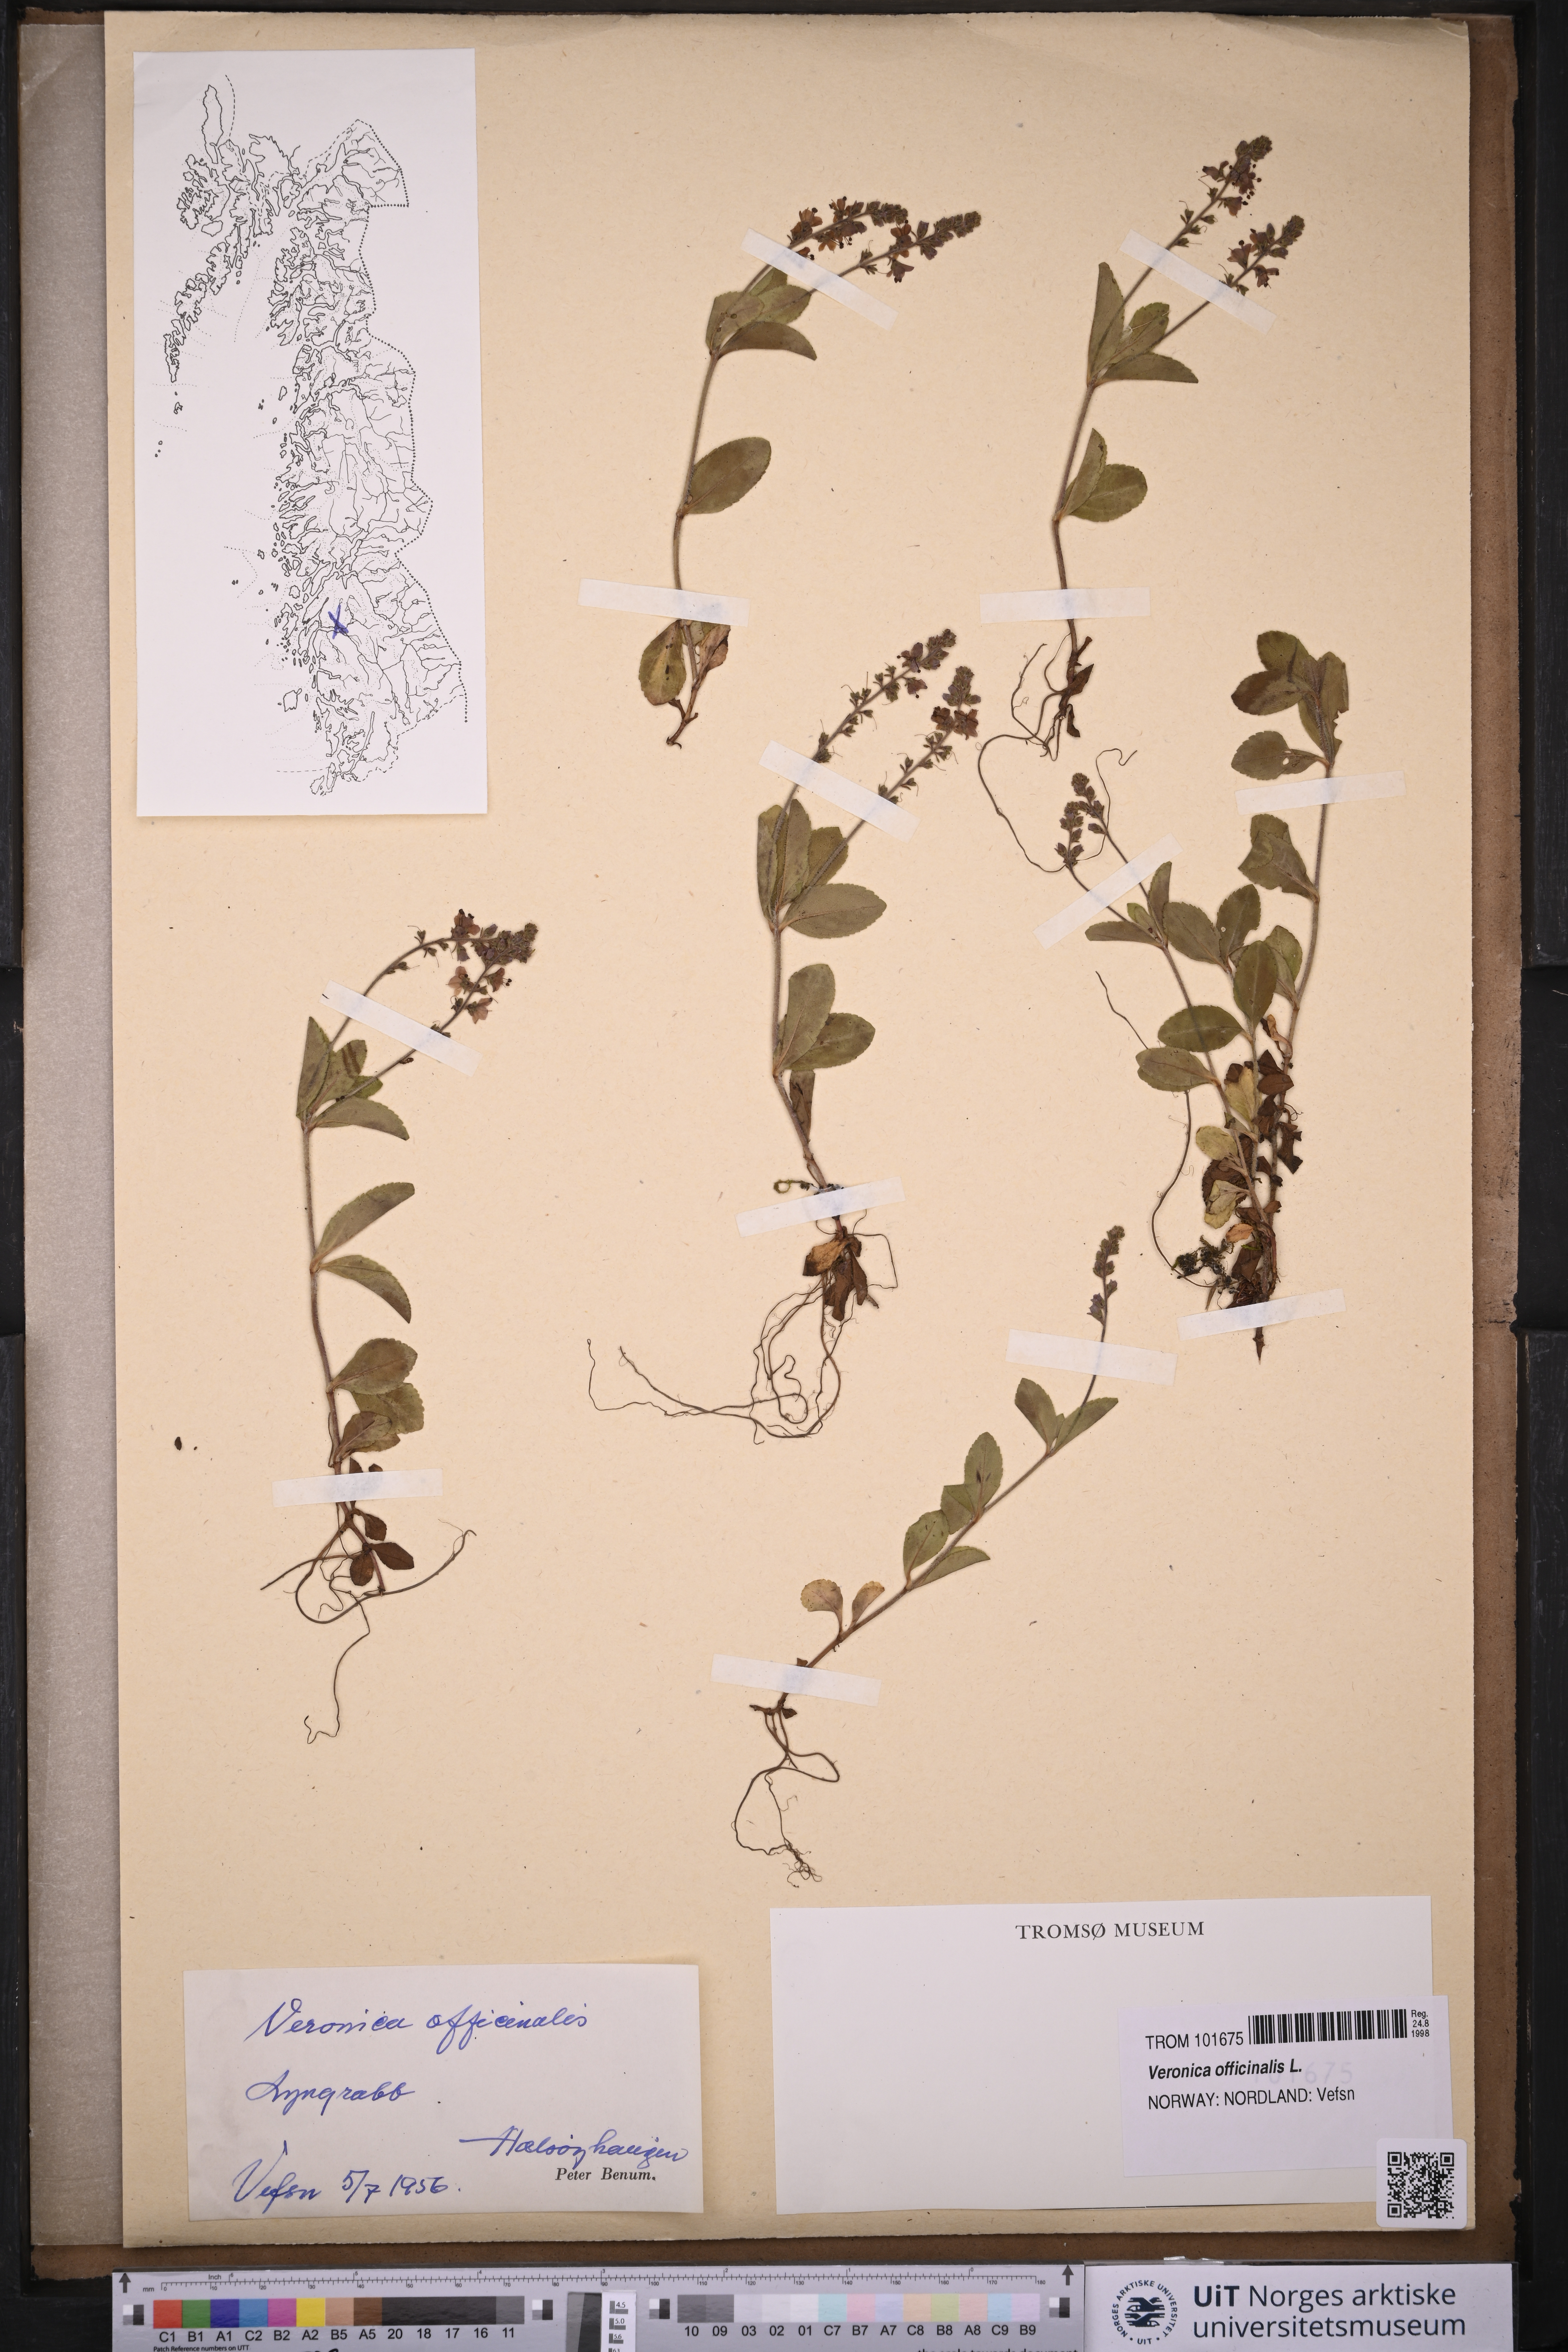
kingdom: Plantae
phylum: Tracheophyta
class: Magnoliopsida
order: Lamiales
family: Plantaginaceae
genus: Veronica
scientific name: Veronica officinalis
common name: Common speedwell
